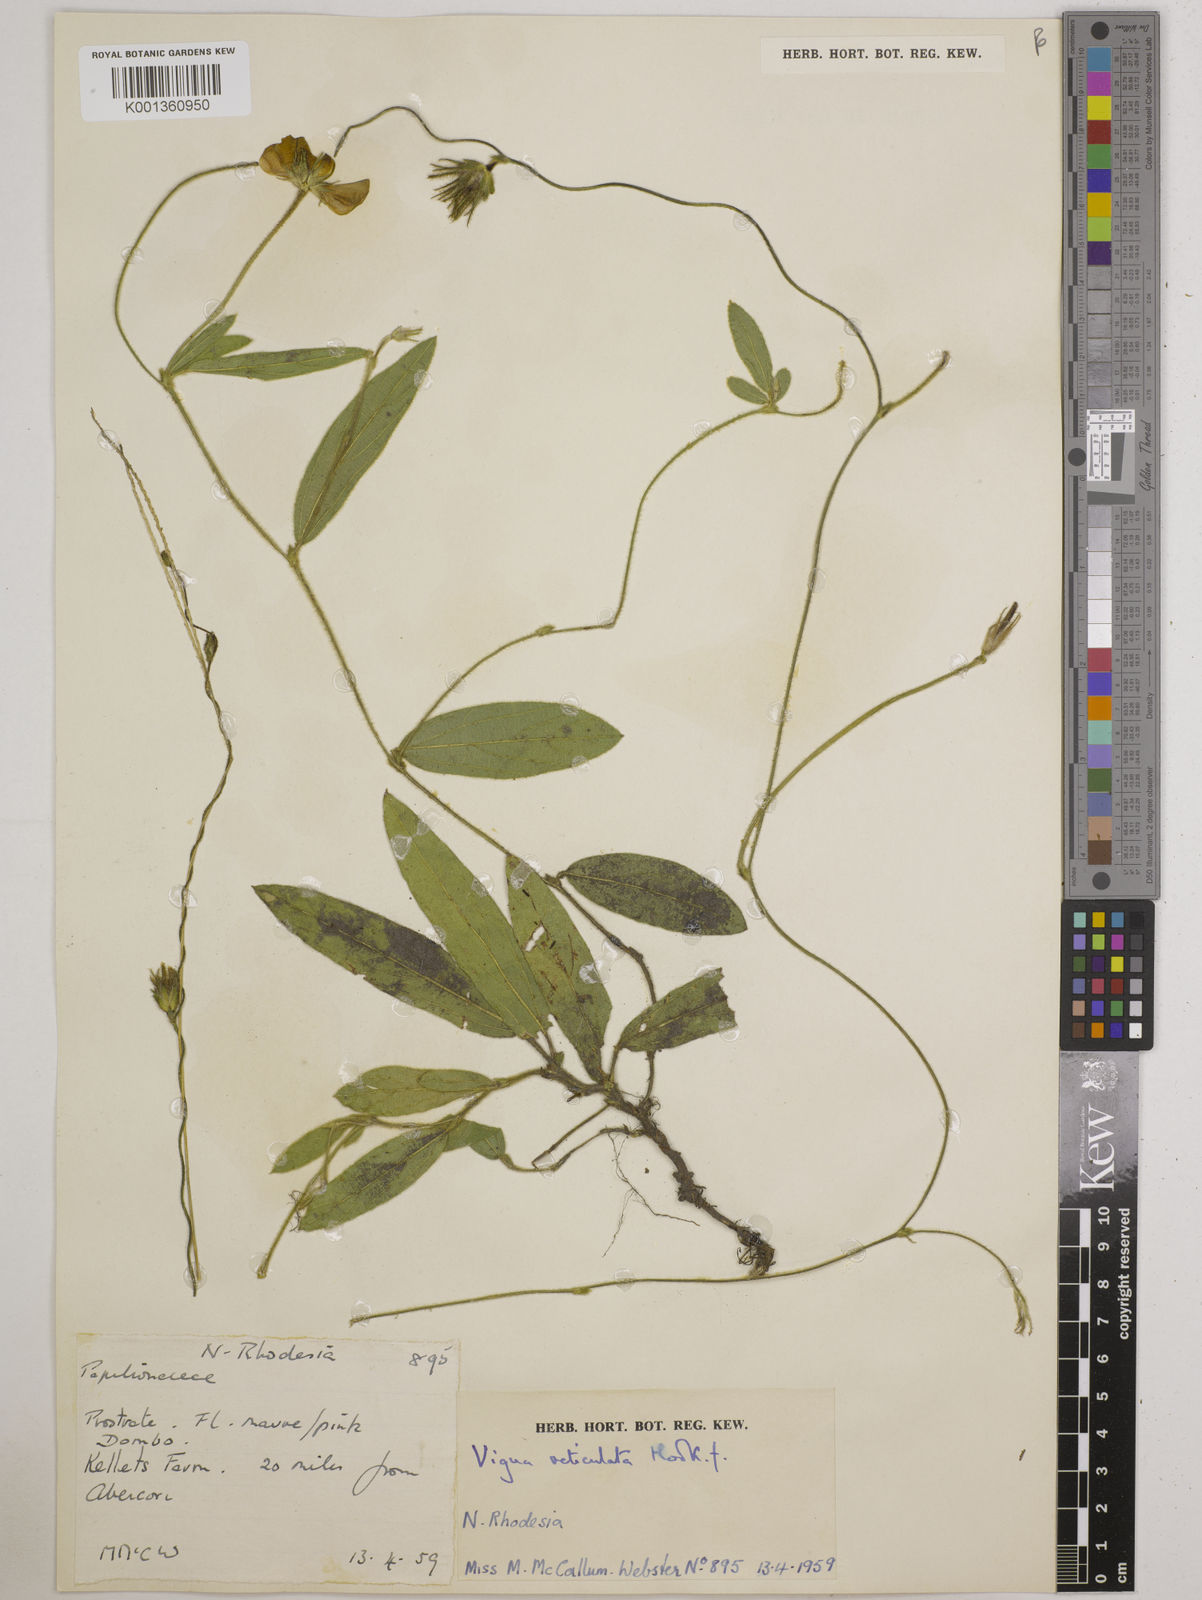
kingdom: Plantae
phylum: Tracheophyta
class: Magnoliopsida
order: Fabales
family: Fabaceae
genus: Vigna
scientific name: Vigna reticulata
